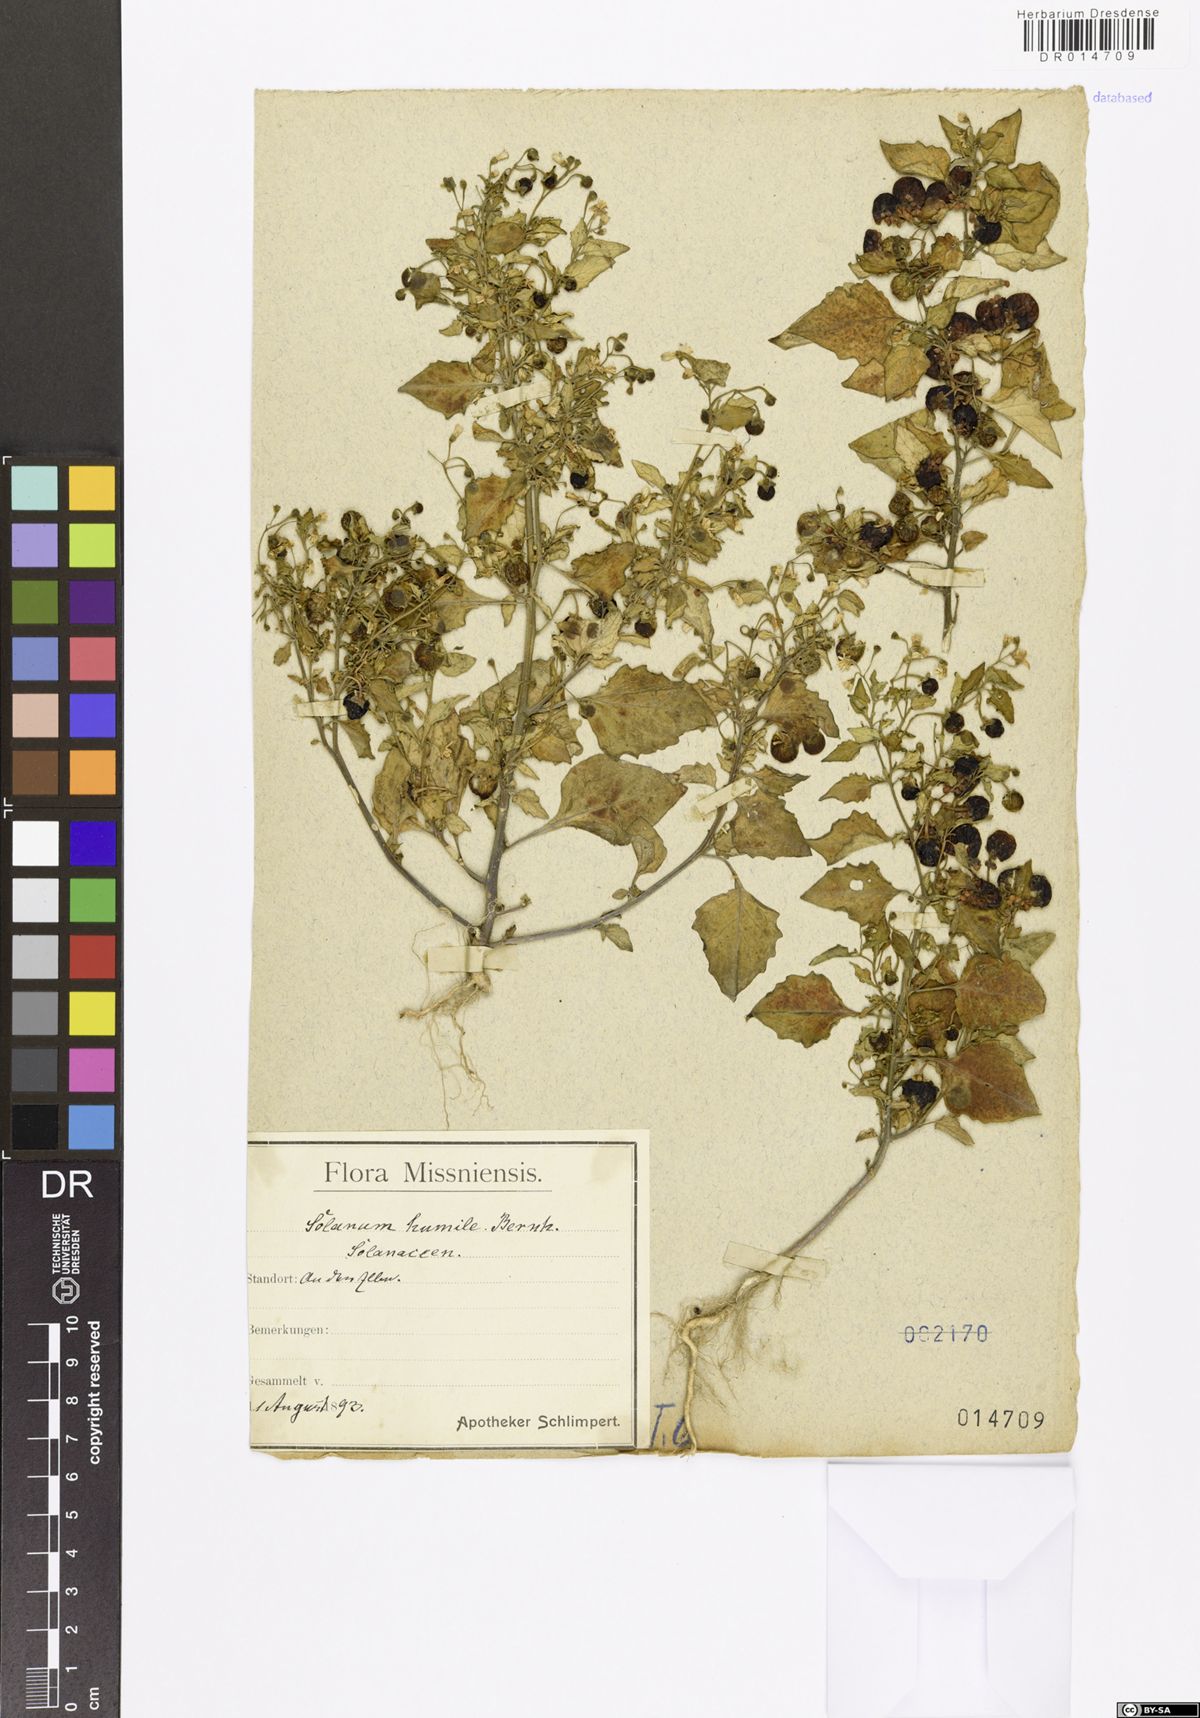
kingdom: Plantae
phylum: Tracheophyta
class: Magnoliopsida
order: Solanales
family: Solanaceae
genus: Solanum
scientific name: Solanum nigrum
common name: Black nightshade
